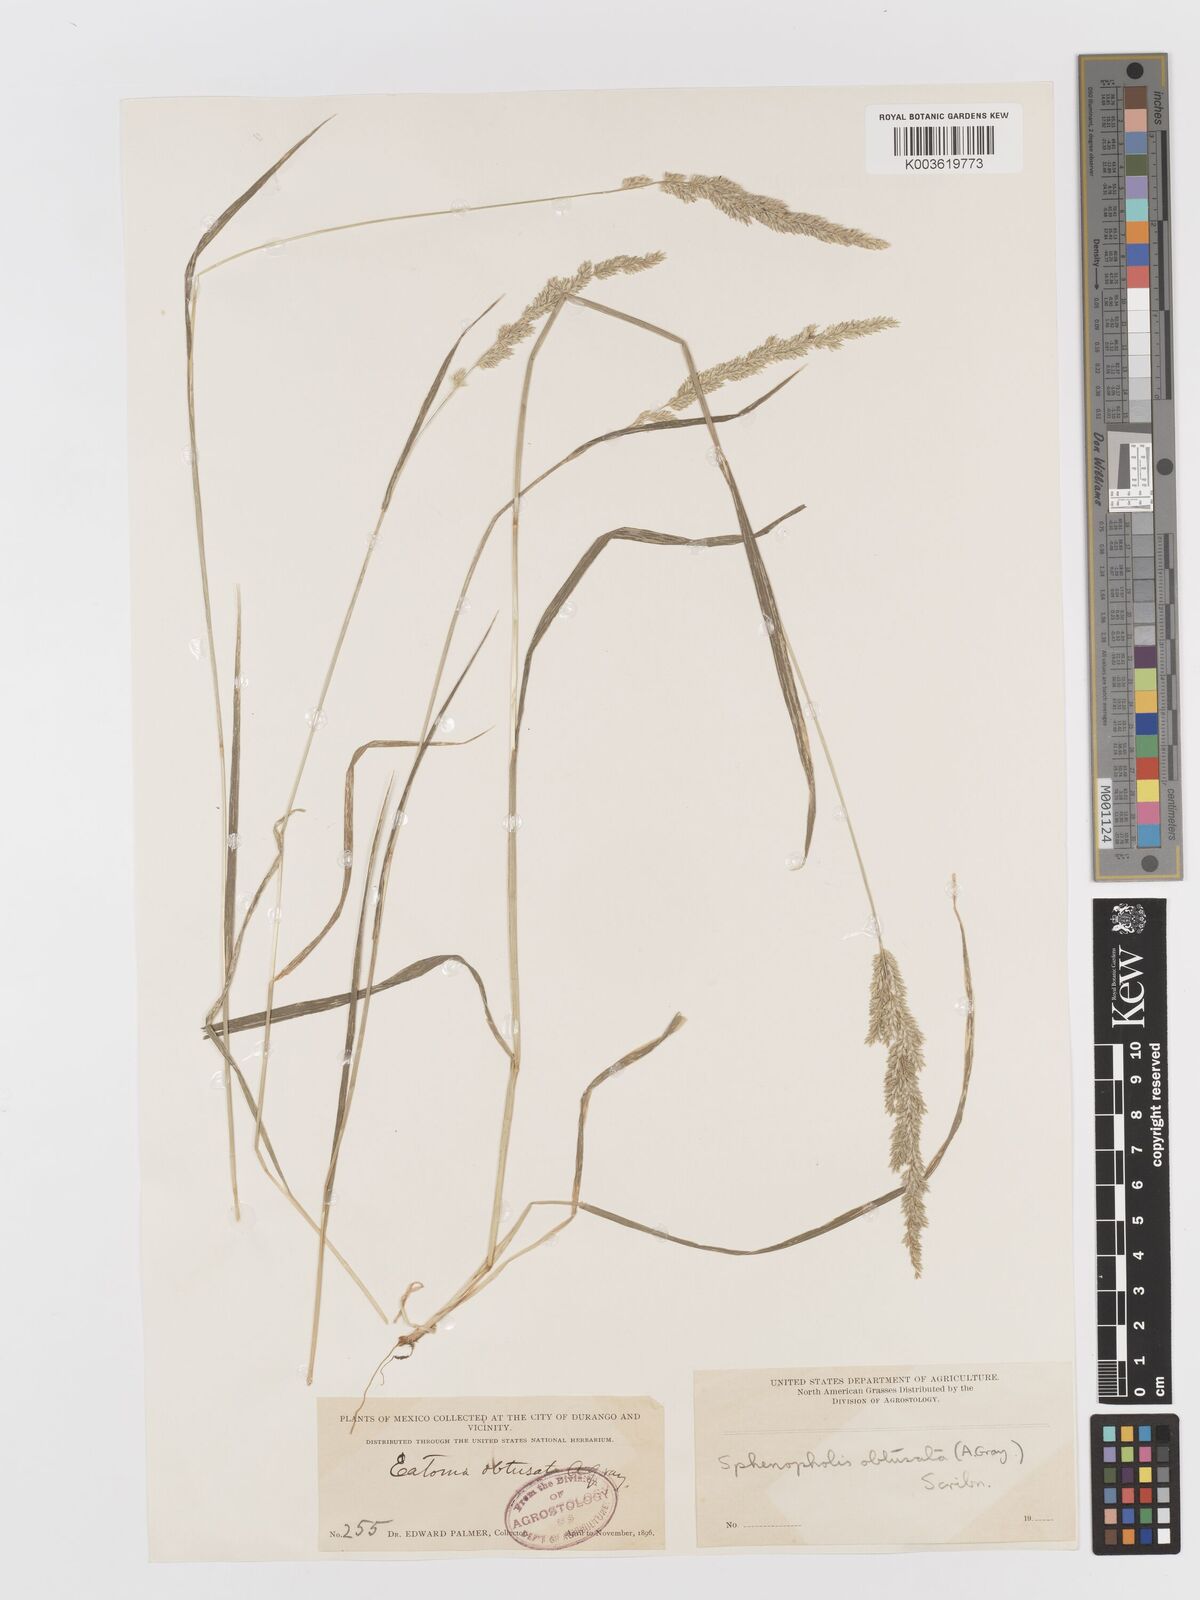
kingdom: Plantae
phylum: Tracheophyta
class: Liliopsida
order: Poales
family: Poaceae
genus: Sphenopholis
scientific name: Sphenopholis obtusata
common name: Prairie grass
